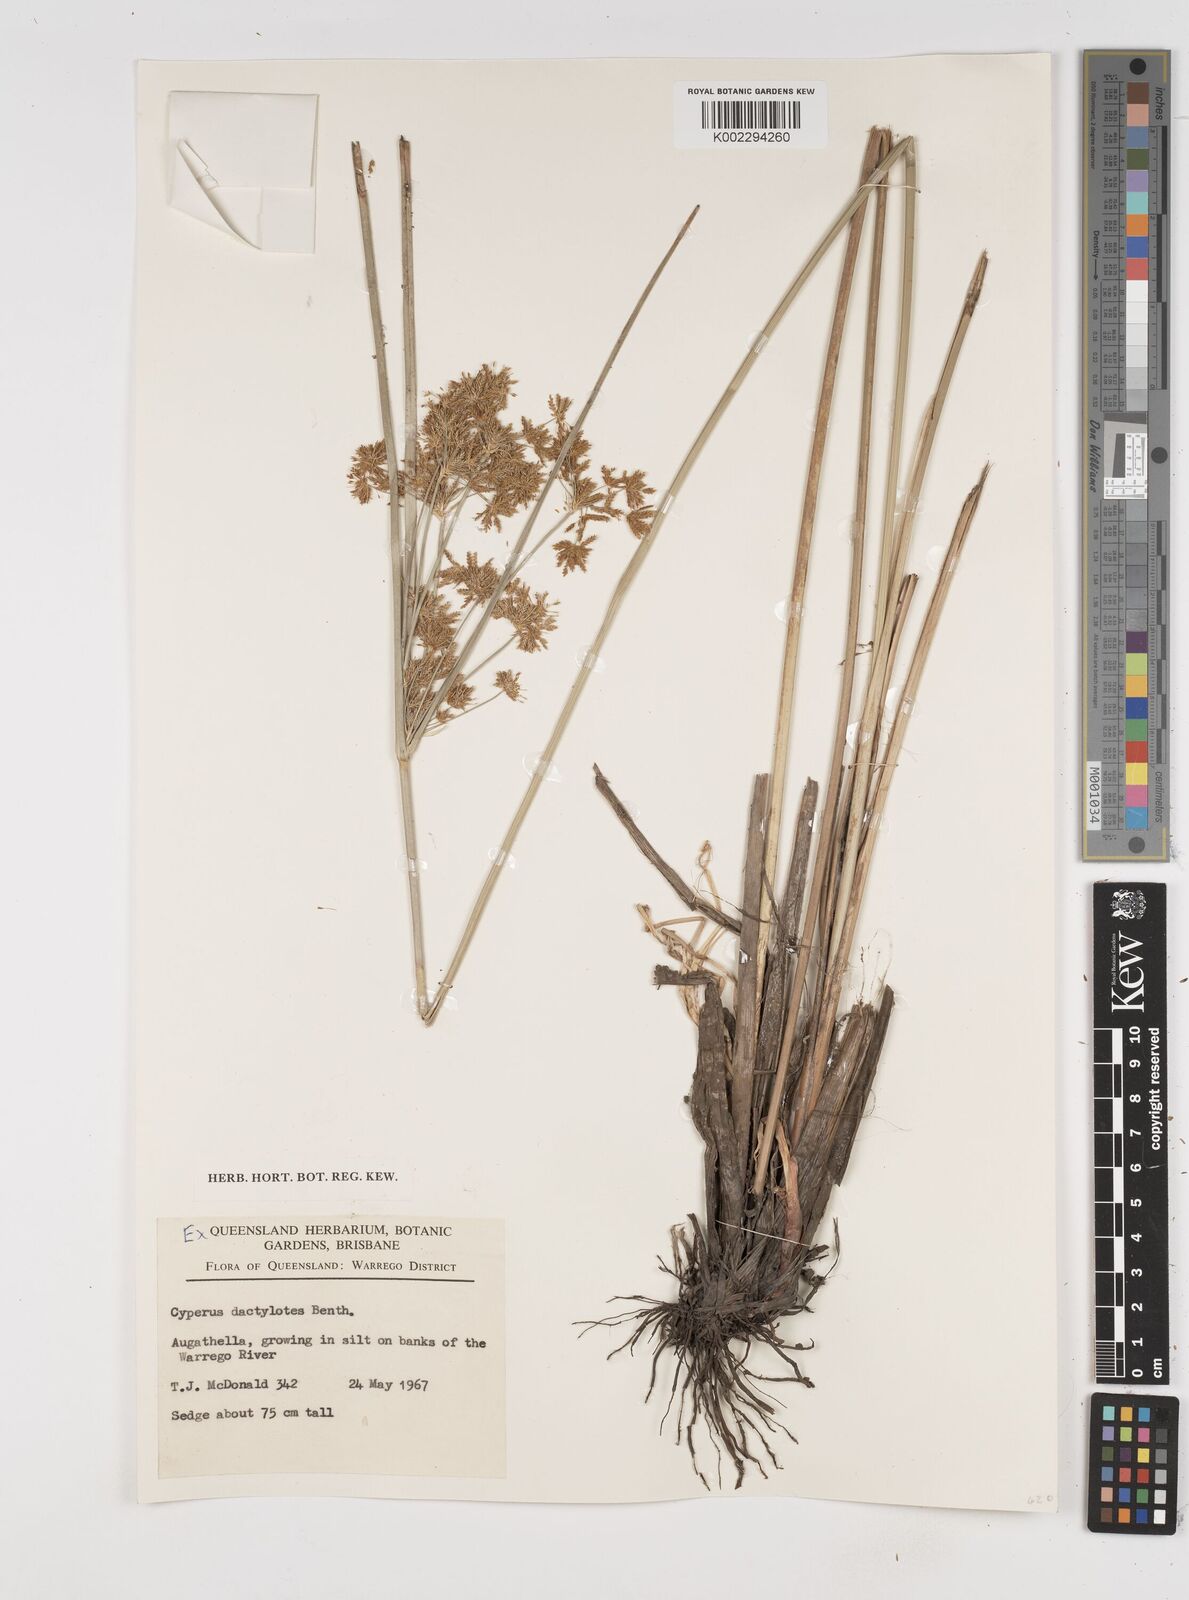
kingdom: Plantae
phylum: Tracheophyta
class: Liliopsida
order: Poales
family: Cyperaceae
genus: Cyperus
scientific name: Cyperus dactylotes
